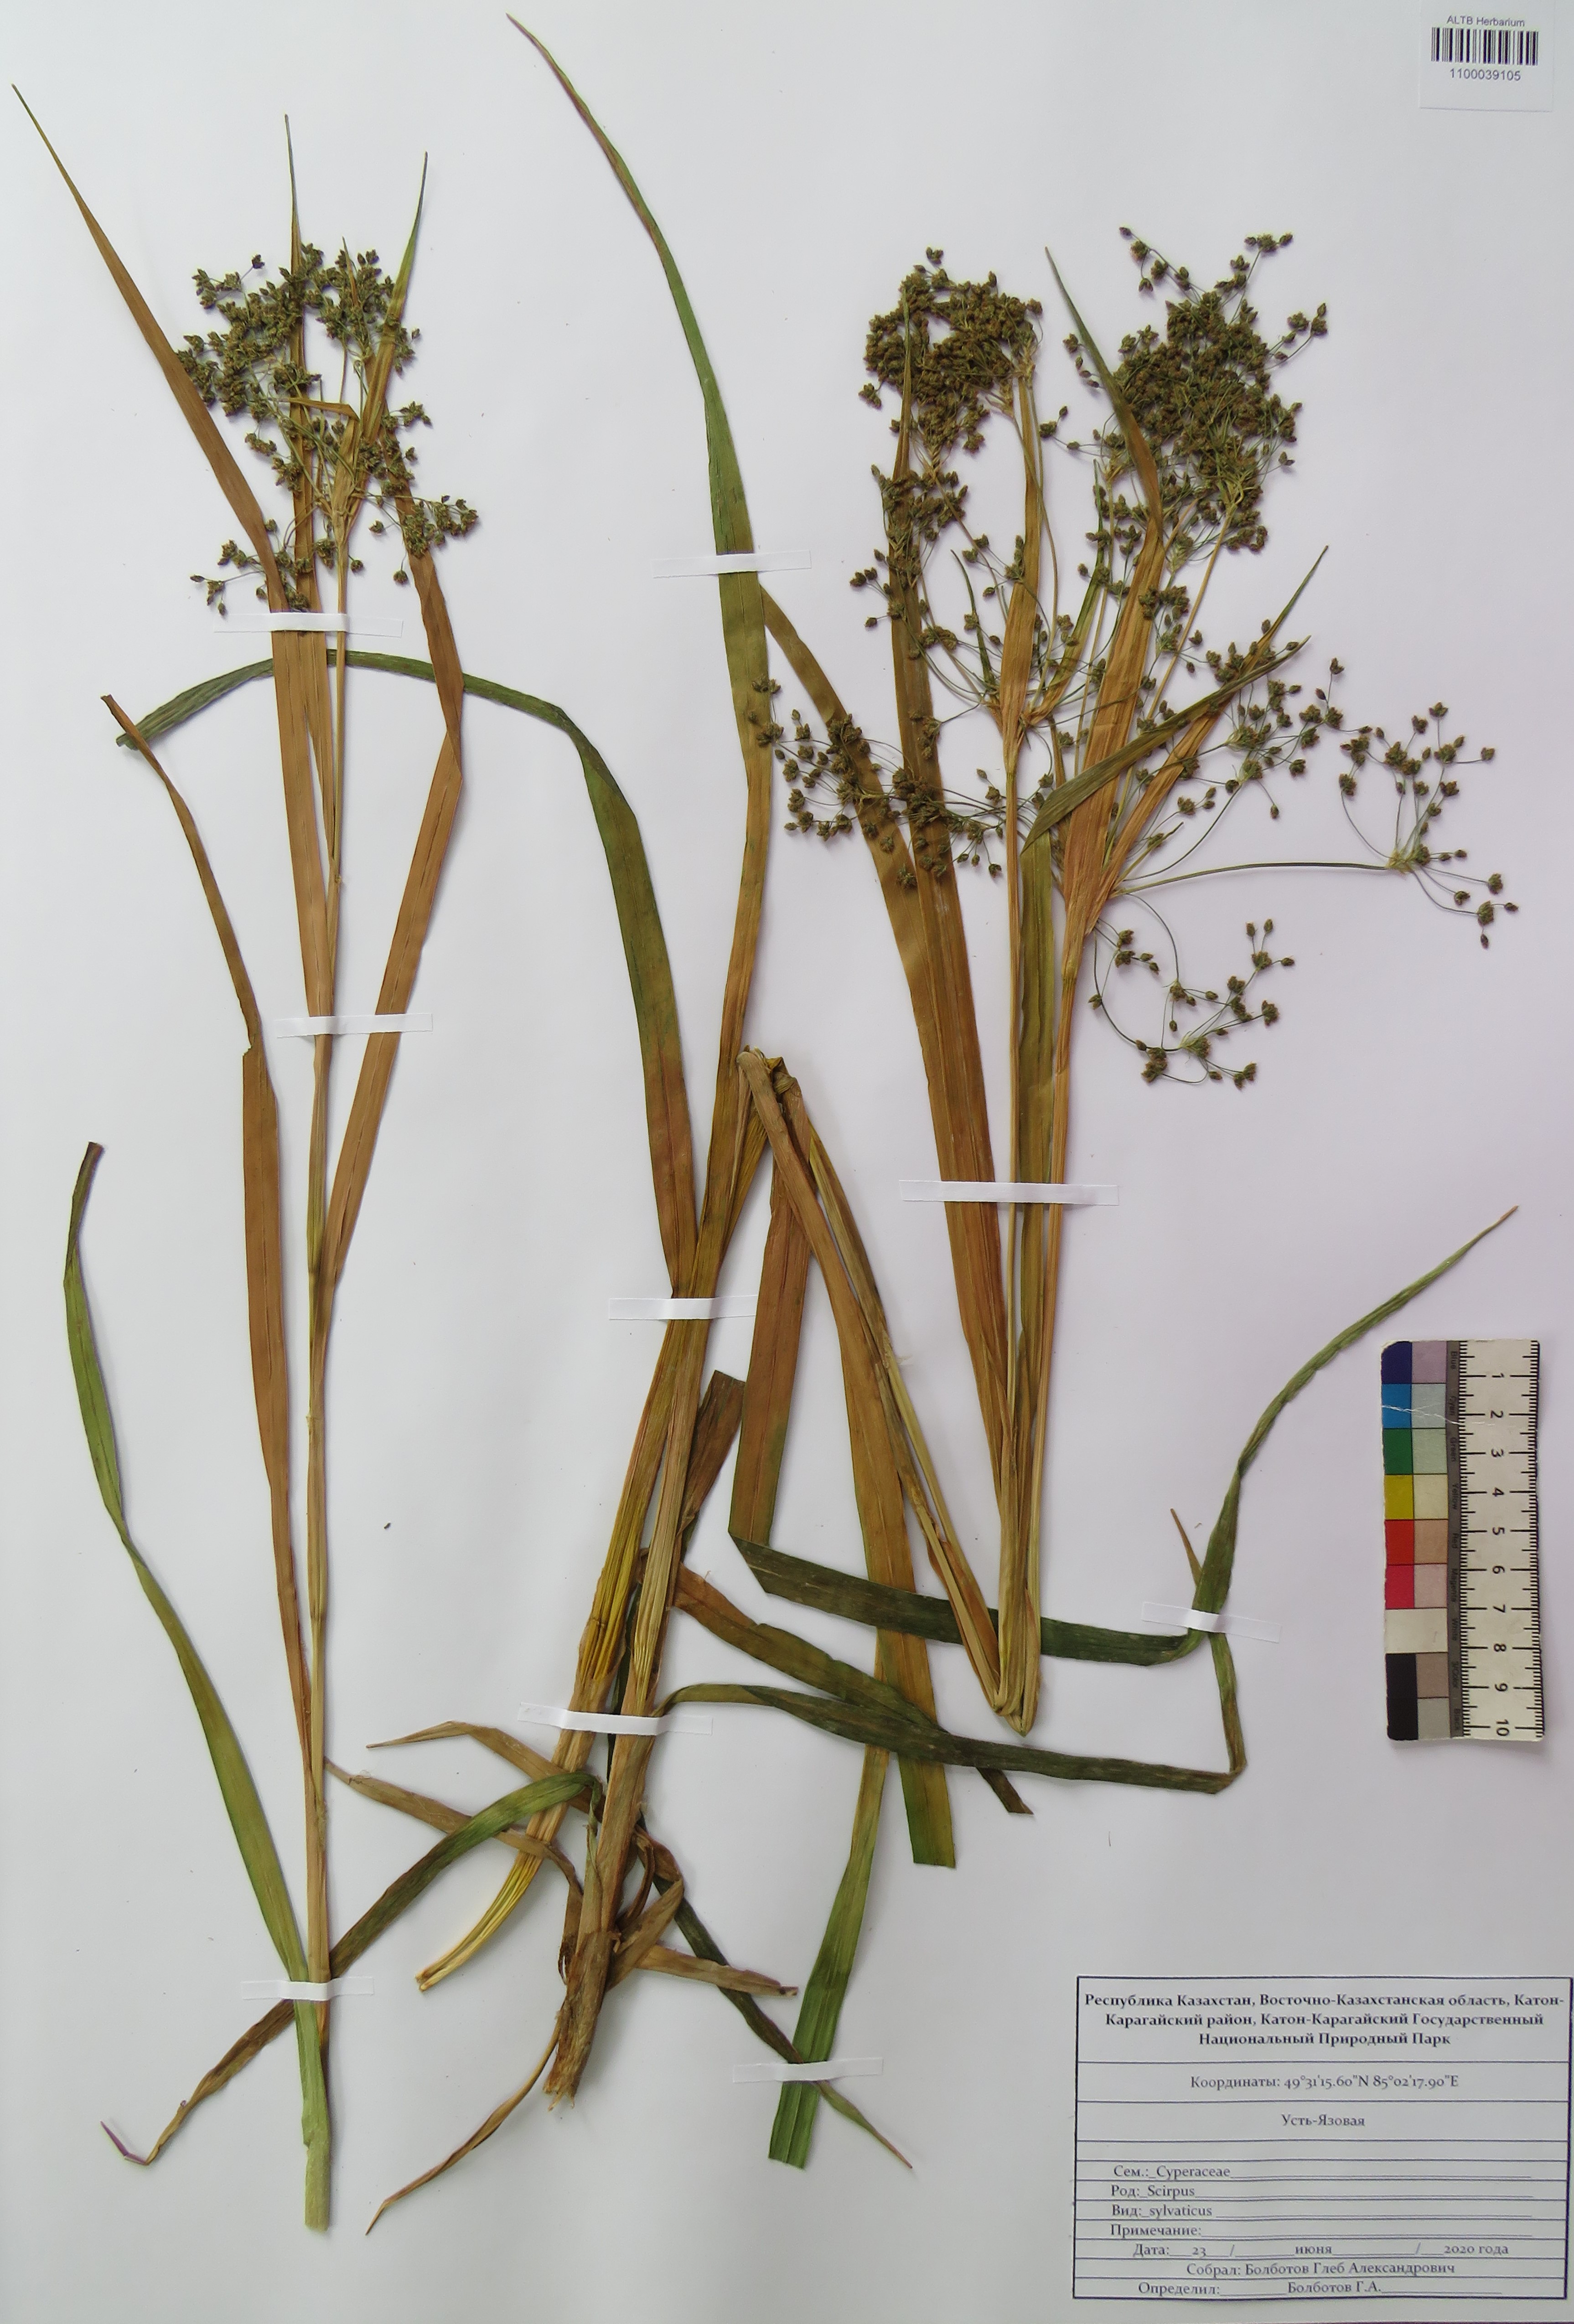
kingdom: Plantae
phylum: Tracheophyta
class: Liliopsida
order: Poales
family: Cyperaceae
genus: Scirpus
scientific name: Scirpus sylvaticus
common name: Wood club-rush
